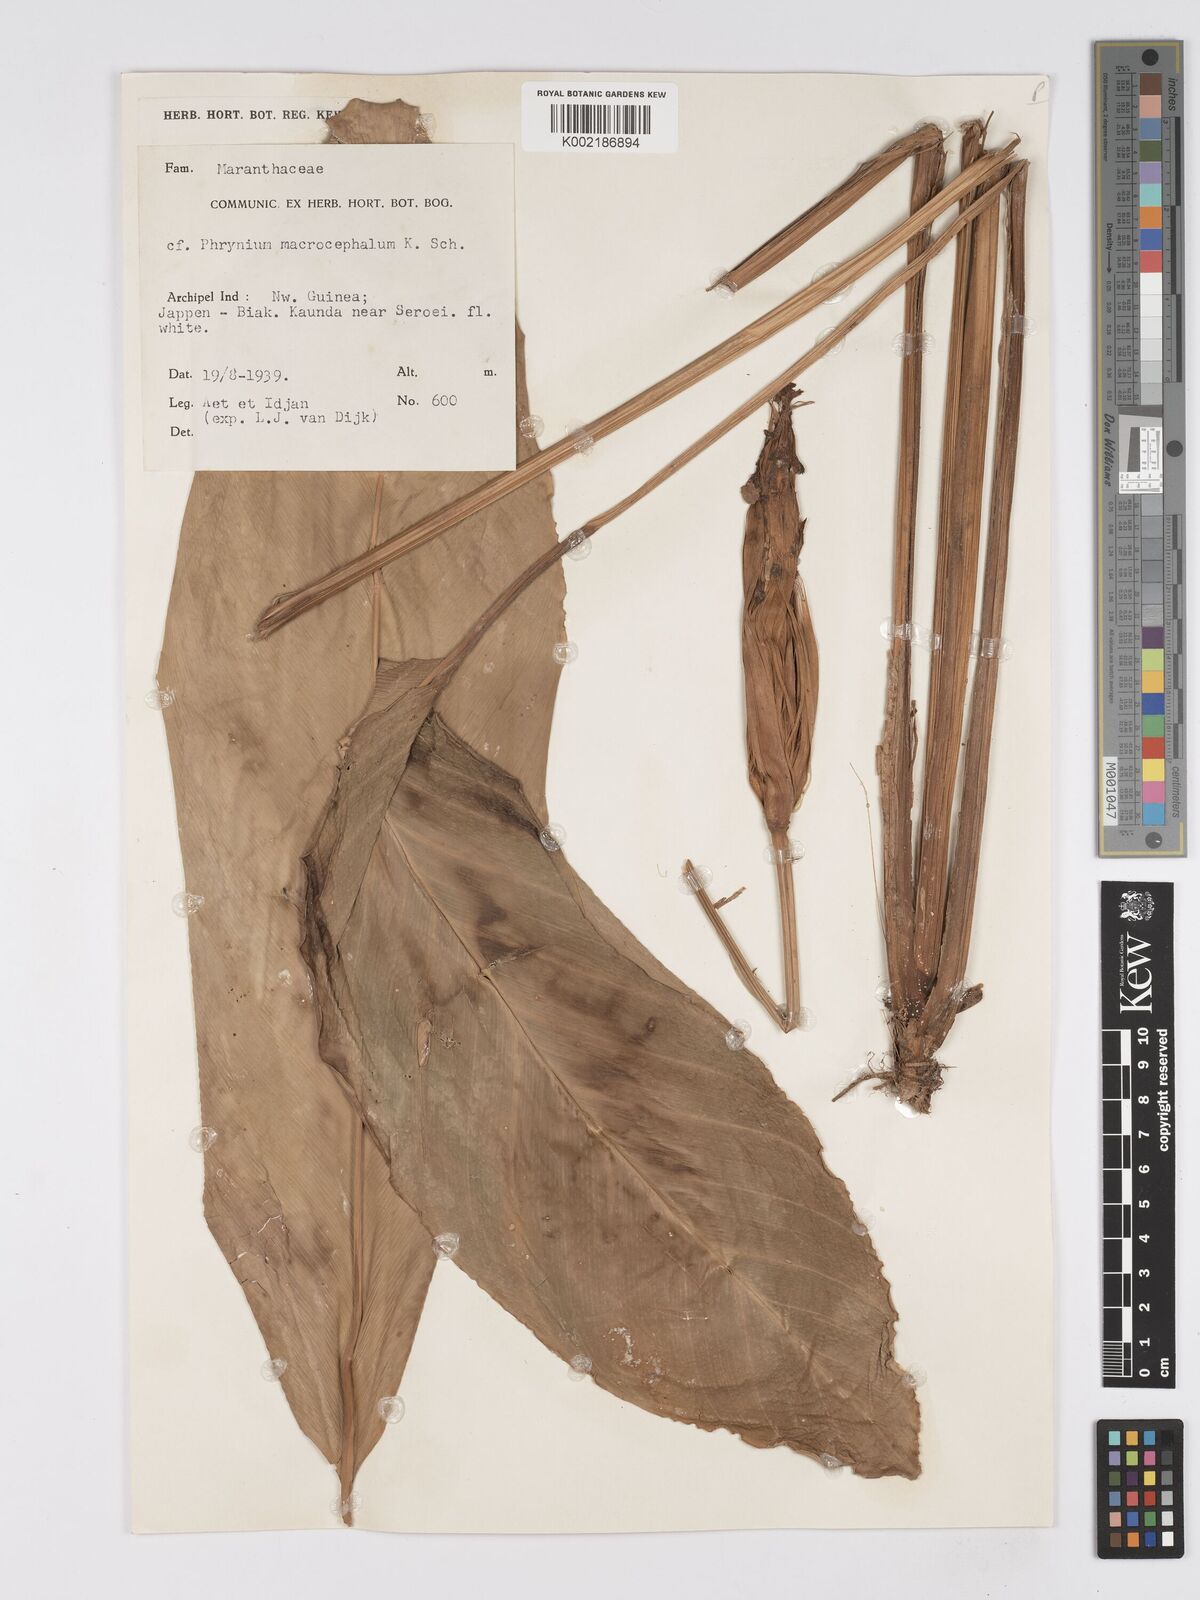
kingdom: Plantae
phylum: Tracheophyta
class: Liliopsida
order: Zingiberales
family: Marantaceae
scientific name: Marantaceae
